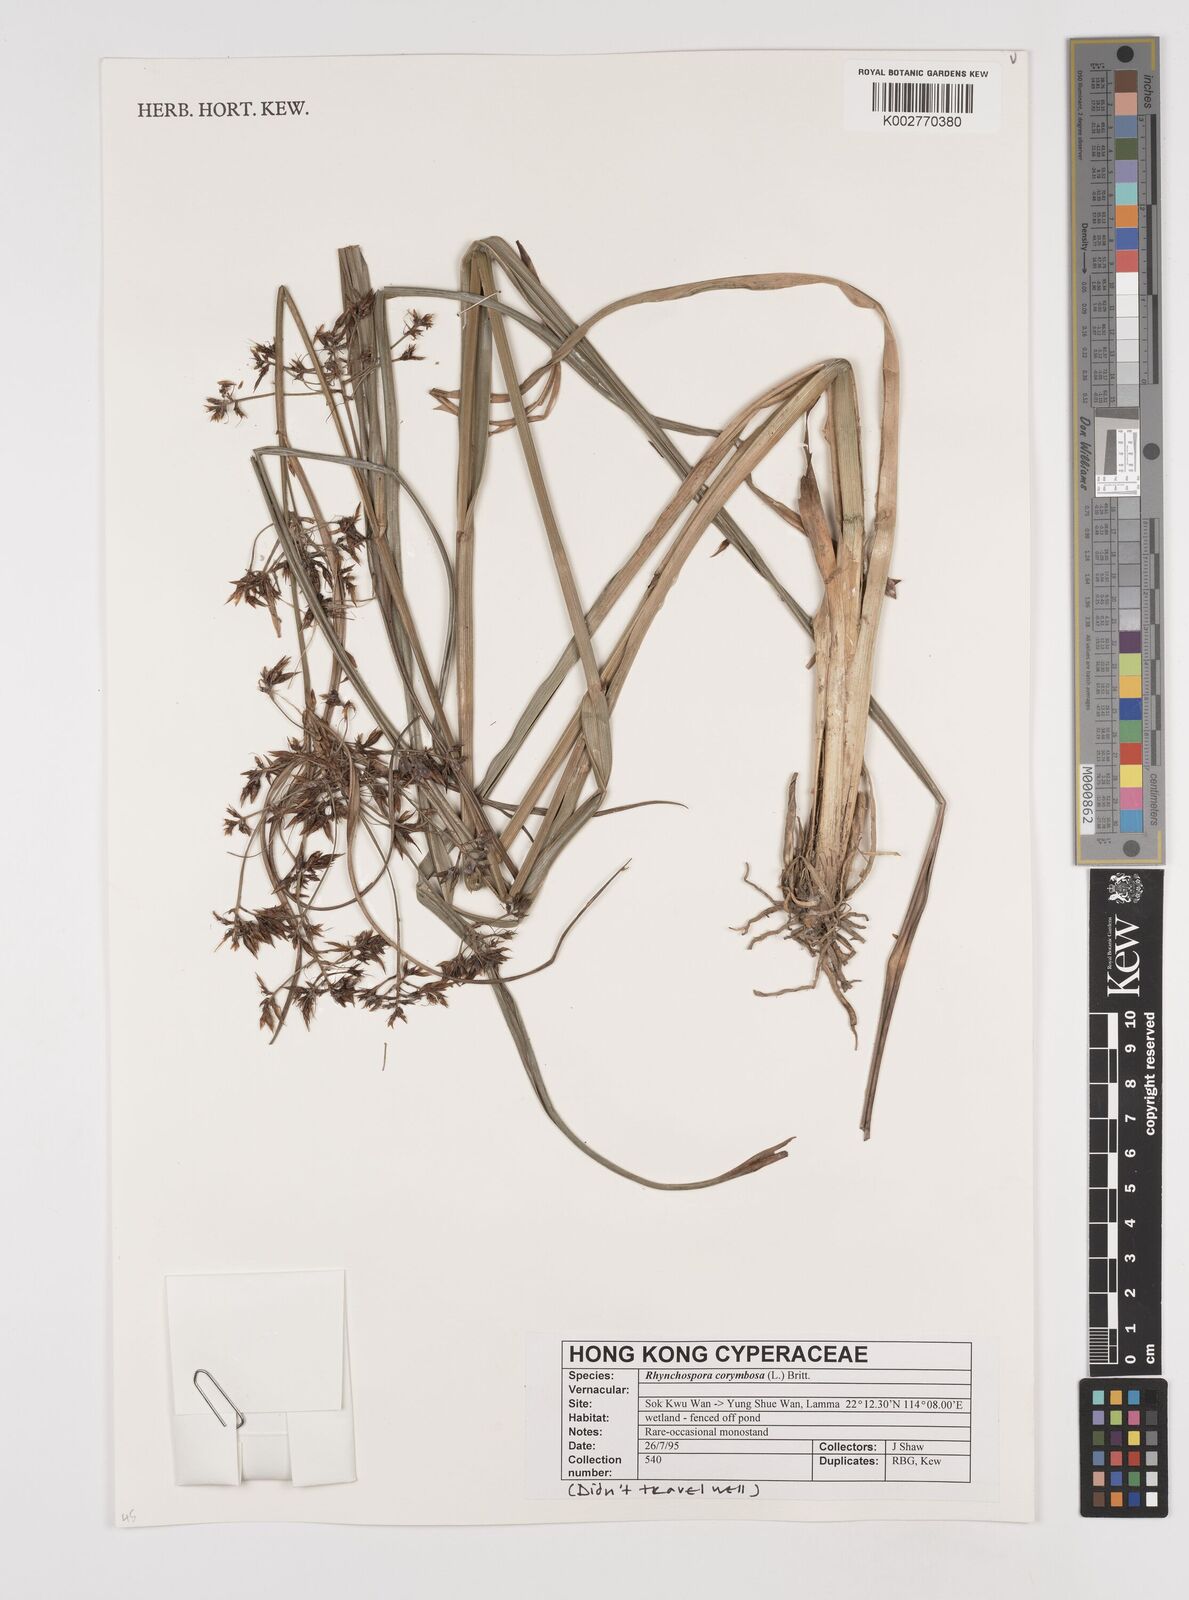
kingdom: Plantae
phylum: Tracheophyta
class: Liliopsida
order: Poales
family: Cyperaceae
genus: Rhynchospora
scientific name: Rhynchospora corymbosa
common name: Golden beak sedge
